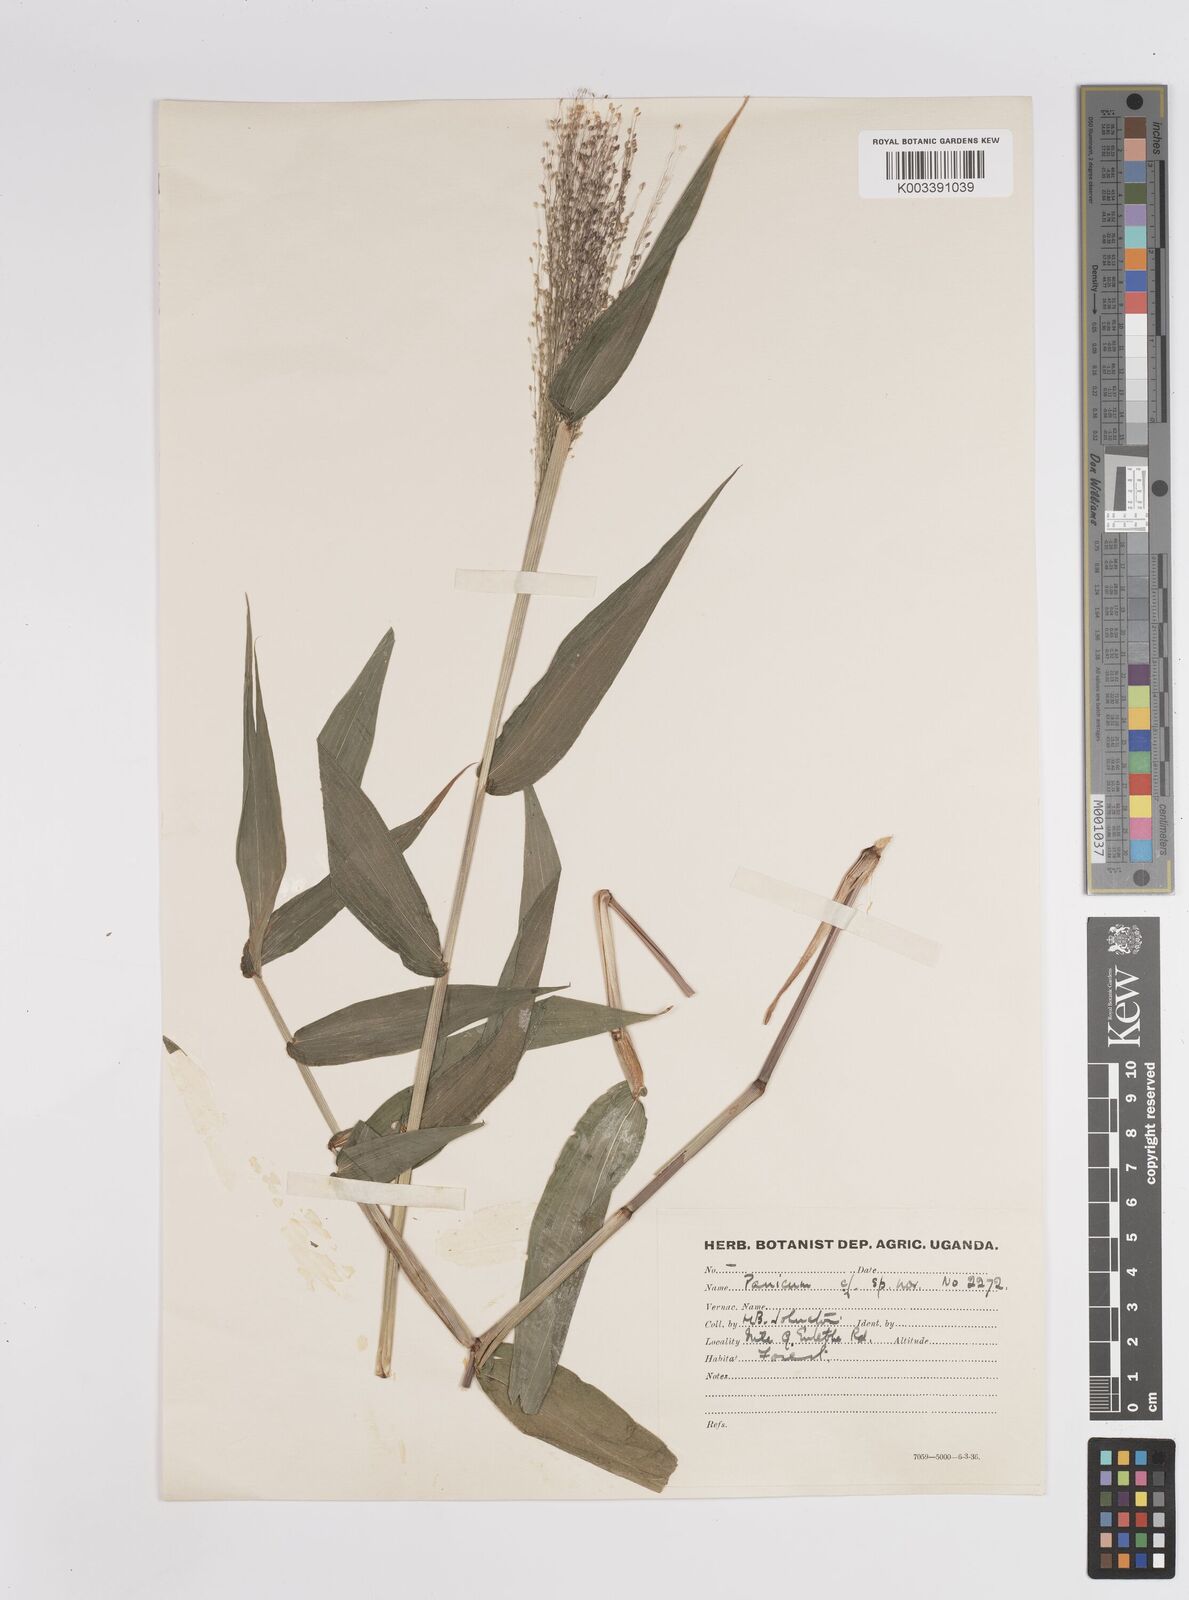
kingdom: Plantae
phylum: Tracheophyta
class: Liliopsida
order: Poales
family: Poaceae
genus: Panicum
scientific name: Panicum issongense
